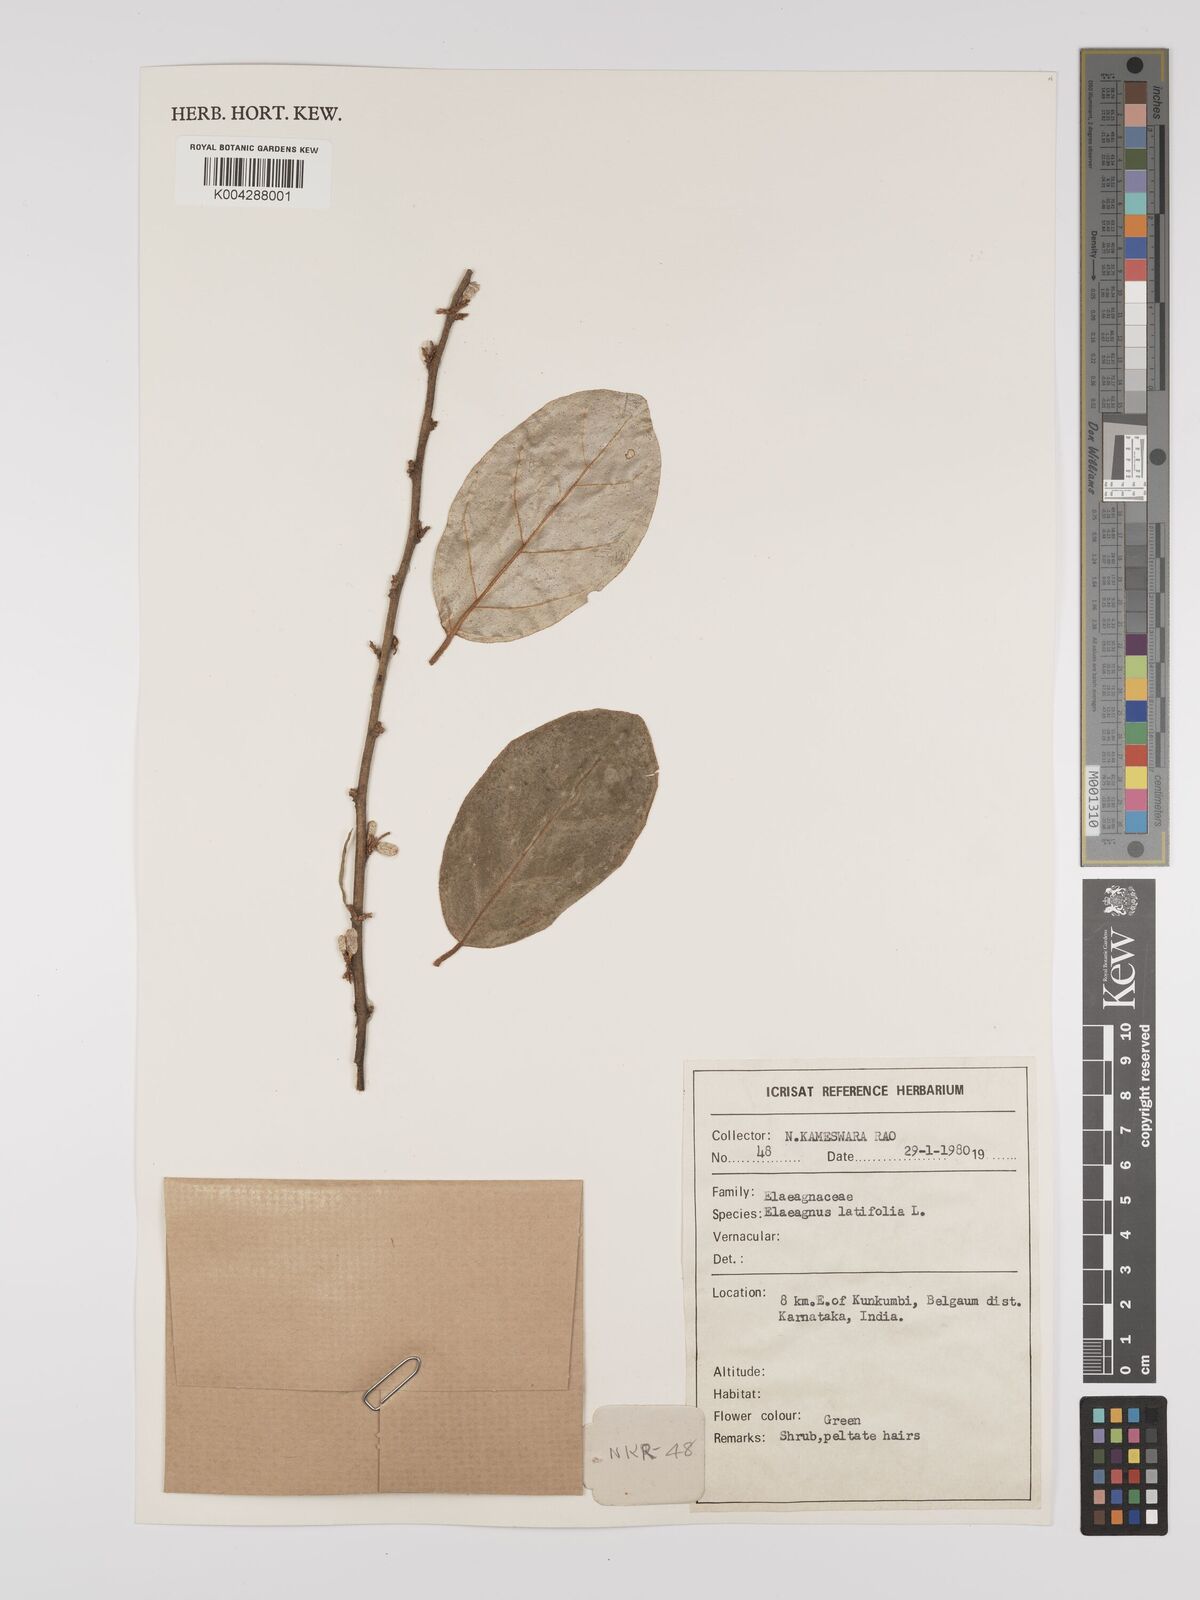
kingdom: Plantae
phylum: Tracheophyta
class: Magnoliopsida
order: Rosales
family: Elaeagnaceae
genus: Elaeagnus
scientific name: Elaeagnus latifolia
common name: Oleaster
